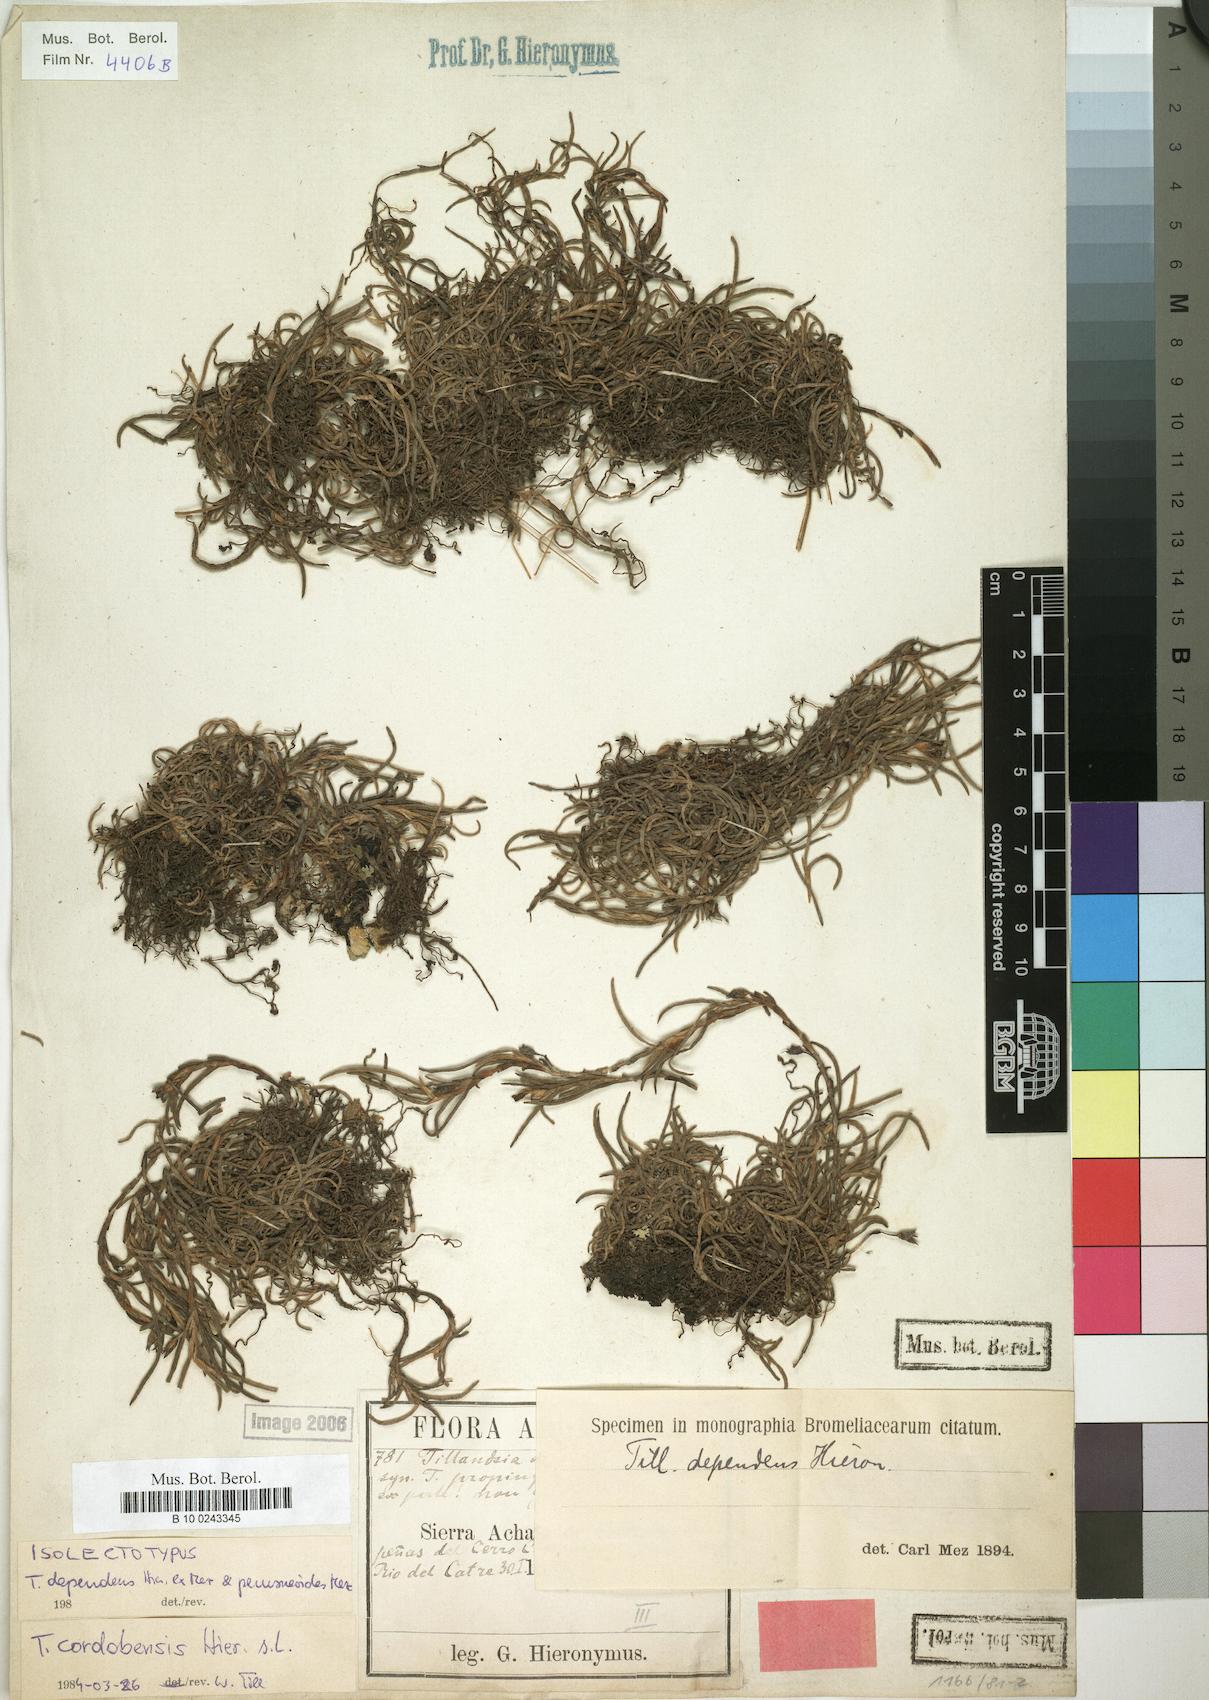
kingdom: Plantae
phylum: Tracheophyta
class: Liliopsida
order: Poales
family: Bromeliaceae
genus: Tillandsia
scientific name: Tillandsia virescens
